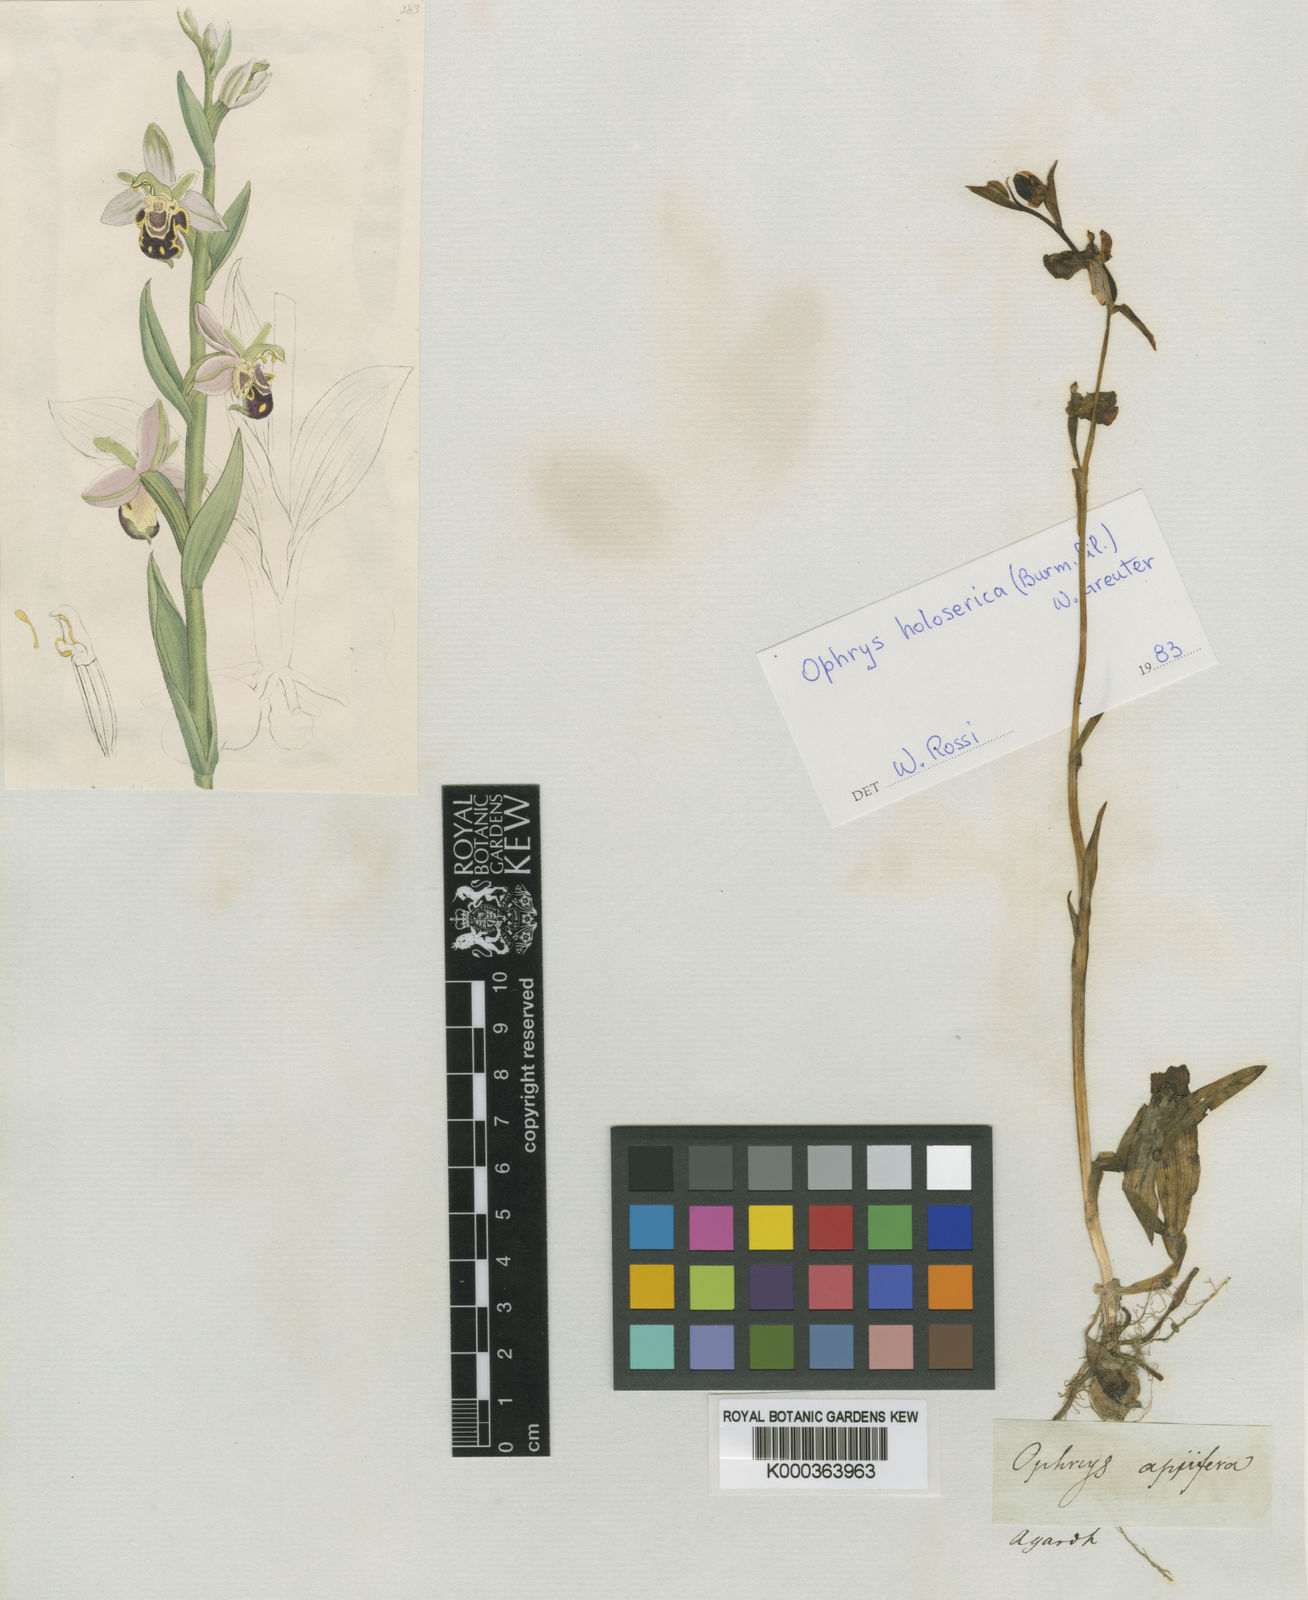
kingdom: Plantae
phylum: Tracheophyta
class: Liliopsida
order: Asparagales
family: Orchidaceae
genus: Ophrys
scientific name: Ophrys apifera
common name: Bee orchid
